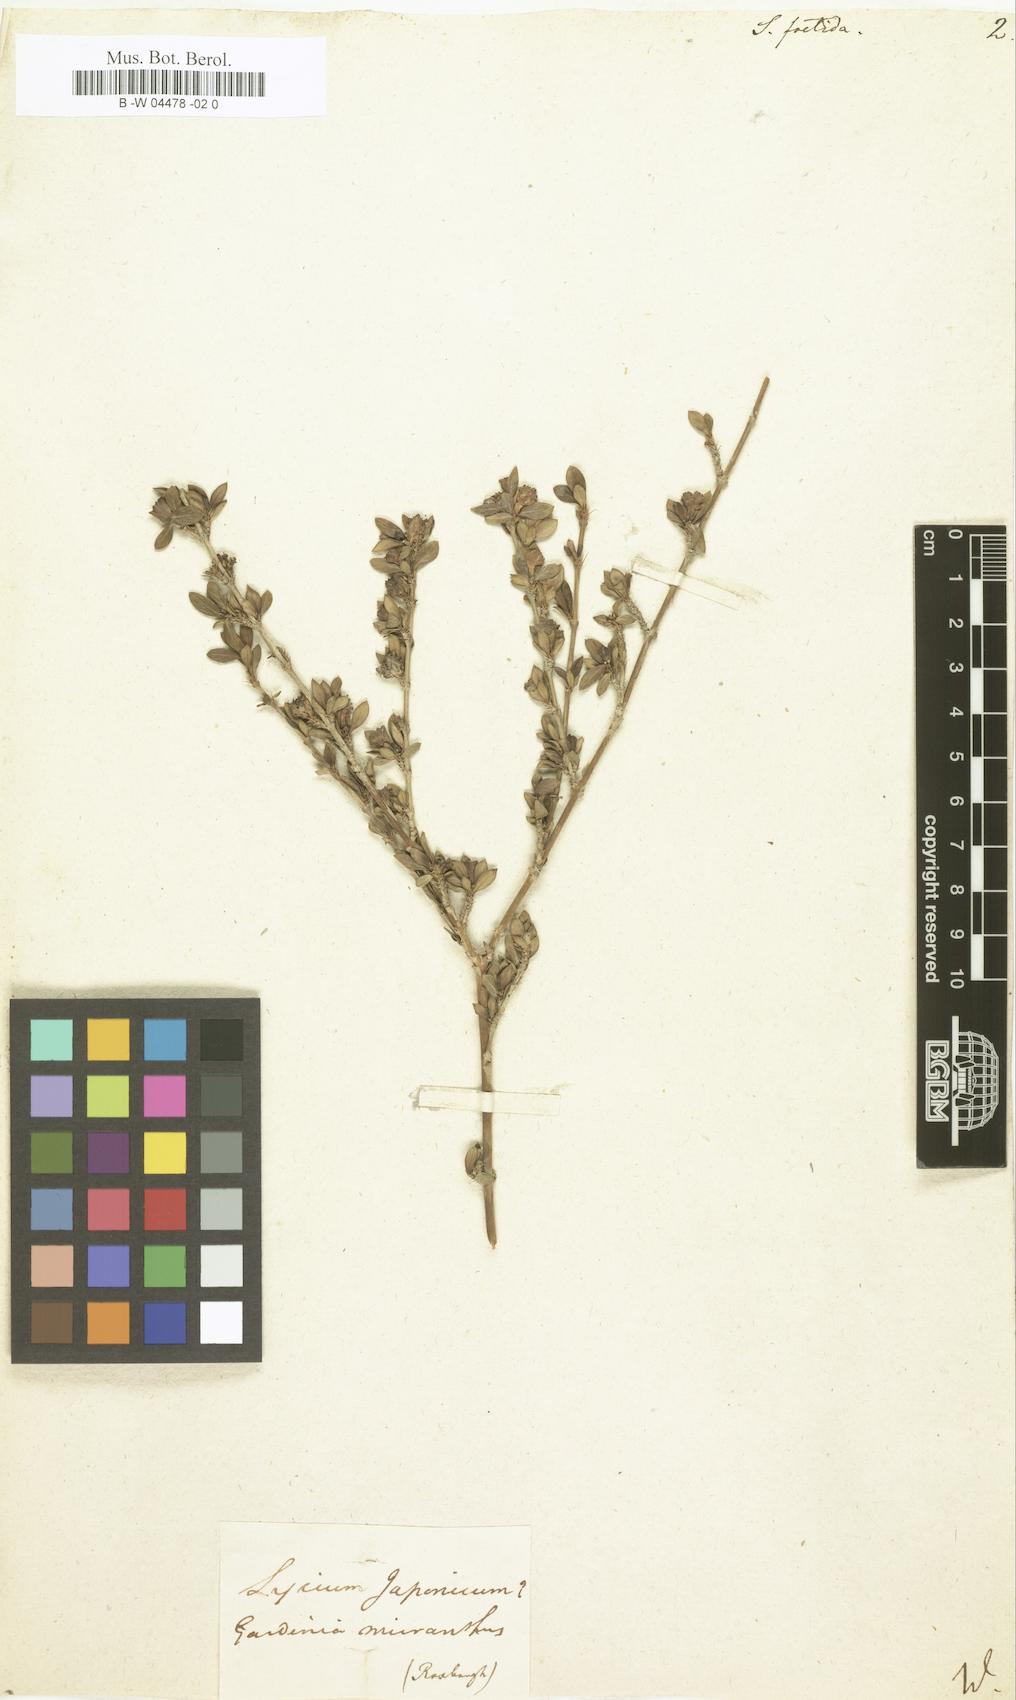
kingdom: Plantae
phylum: Tracheophyta
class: Magnoliopsida
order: Gentianales
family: Rubiaceae
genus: Buchozia
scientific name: Buchozia japonica
